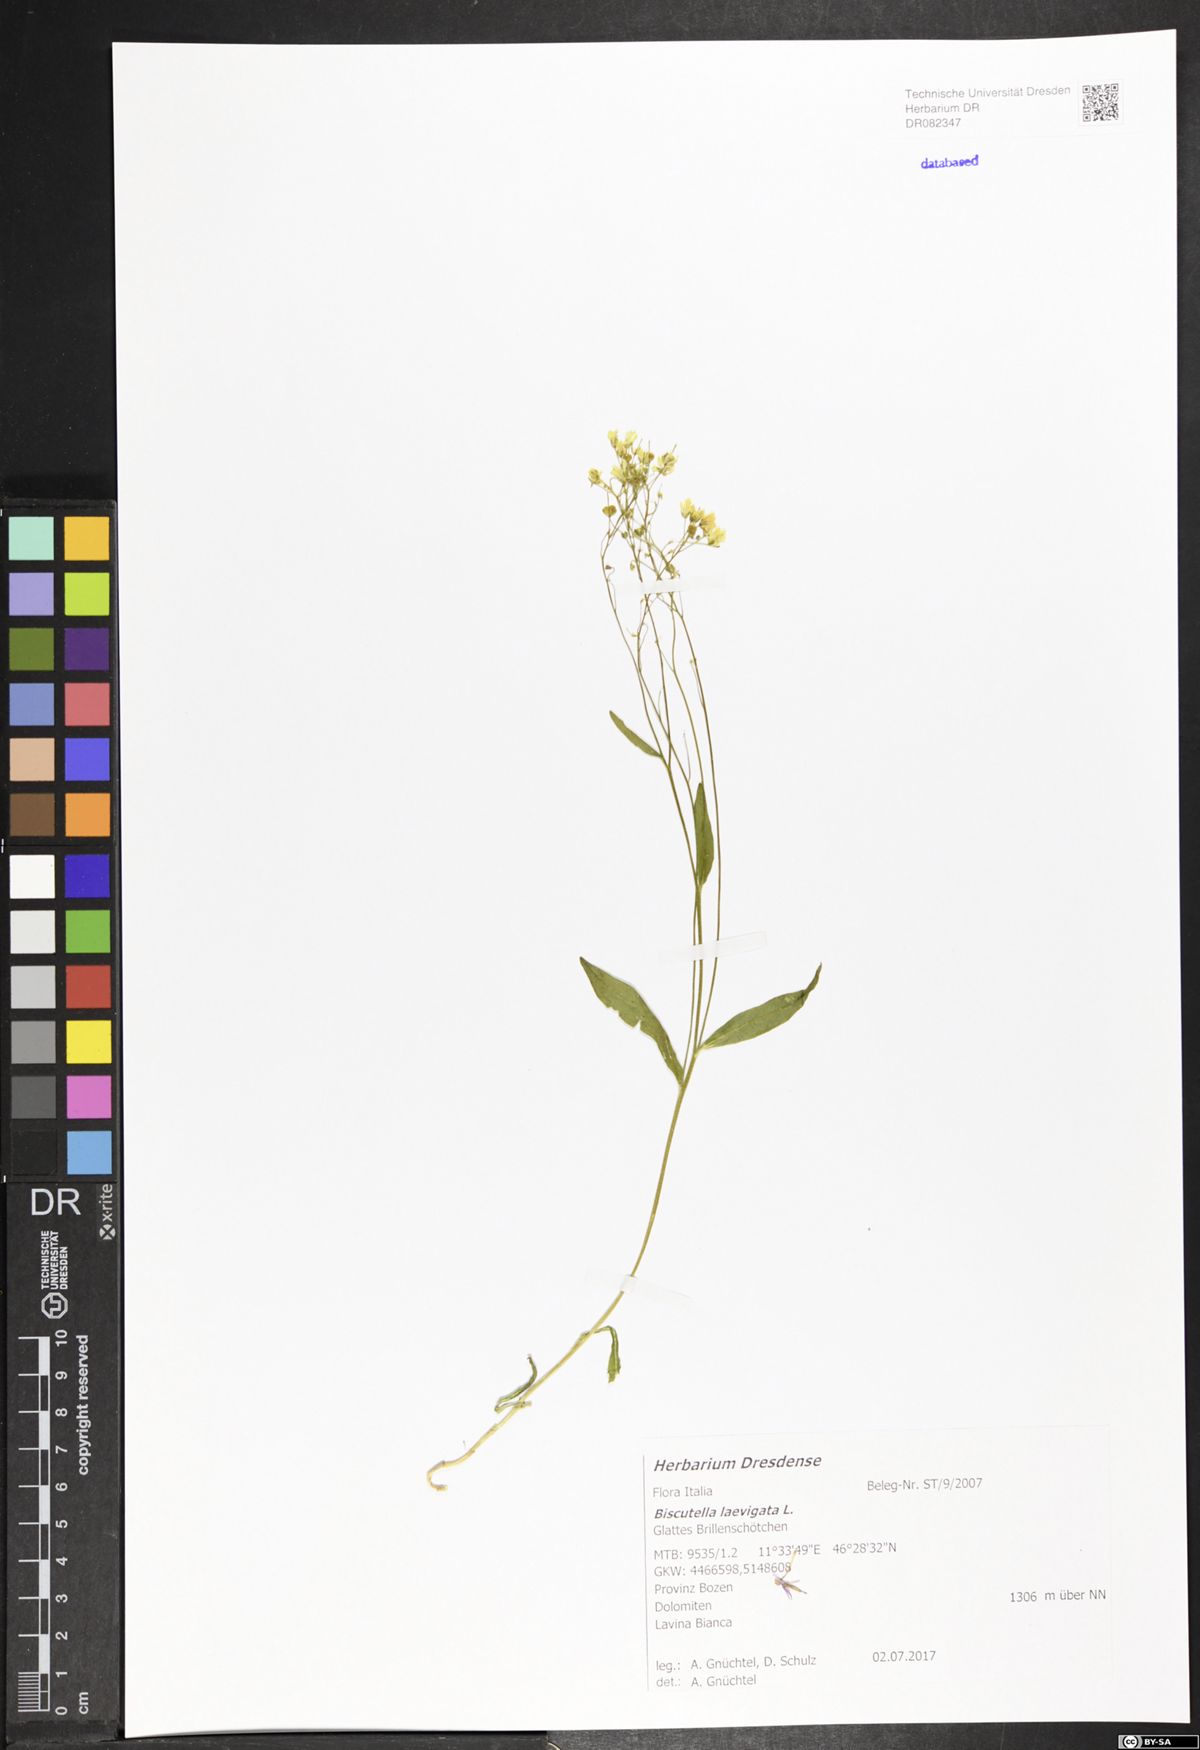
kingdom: Plantae
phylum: Tracheophyta
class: Magnoliopsida
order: Brassicales
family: Brassicaceae
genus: Biscutella
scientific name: Biscutella laevigata
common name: Buckler mustard
